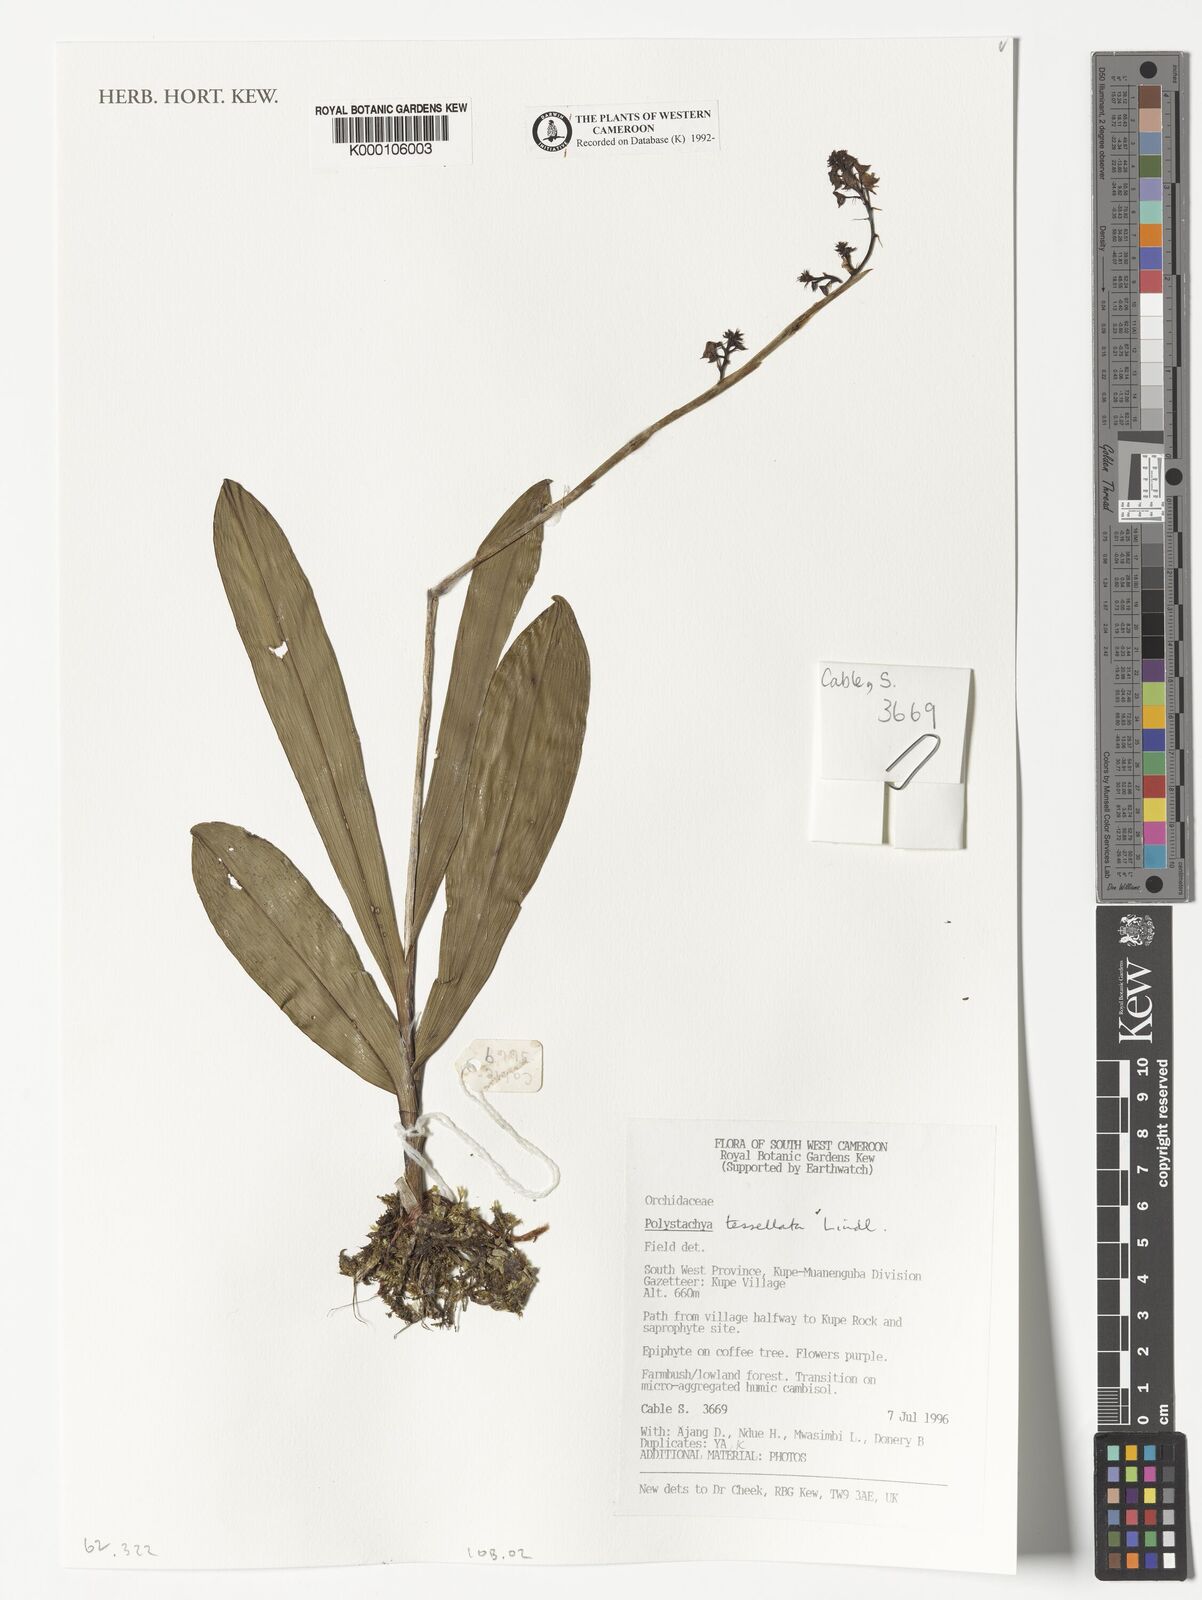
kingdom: Plantae
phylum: Tracheophyta
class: Liliopsida
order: Asparagales
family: Orchidaceae
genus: Polystachya
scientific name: Polystachya concreta
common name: Greater yellowspike orchid
